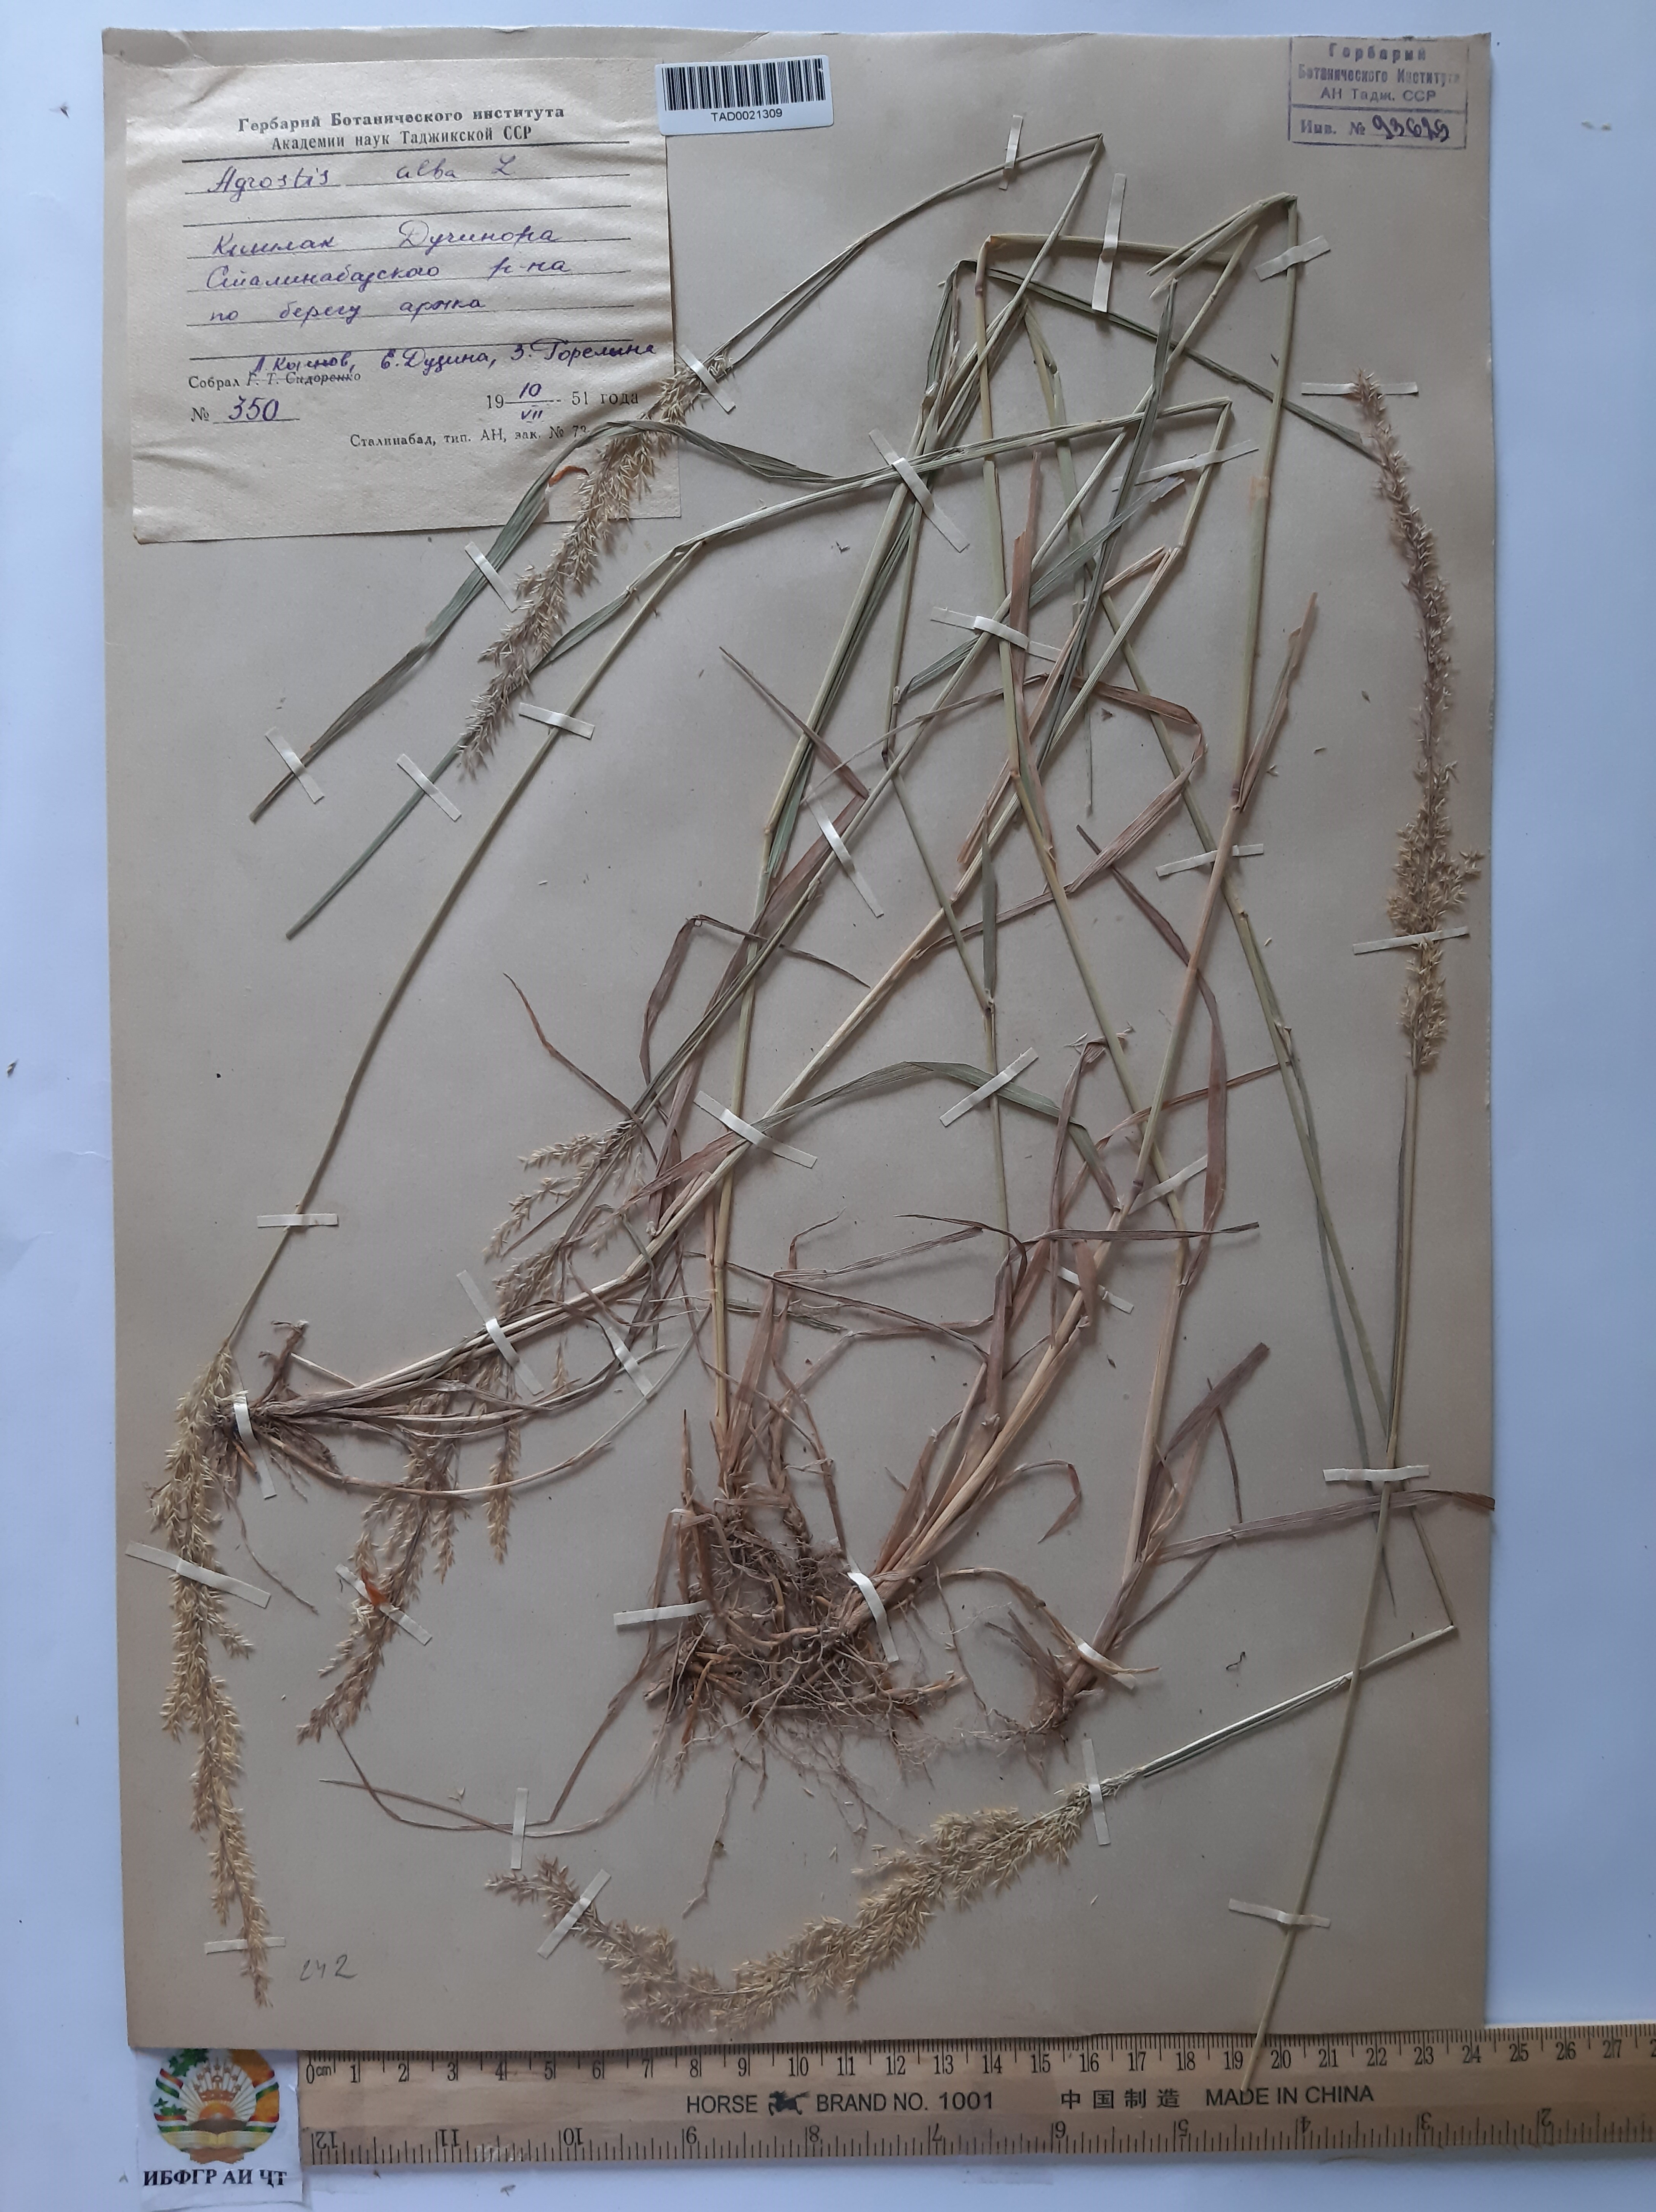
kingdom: Plantae
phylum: Tracheophyta
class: Liliopsida
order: Poales
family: Poaceae
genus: Poa
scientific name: Poa nemoralis
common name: Wood bluegrass
